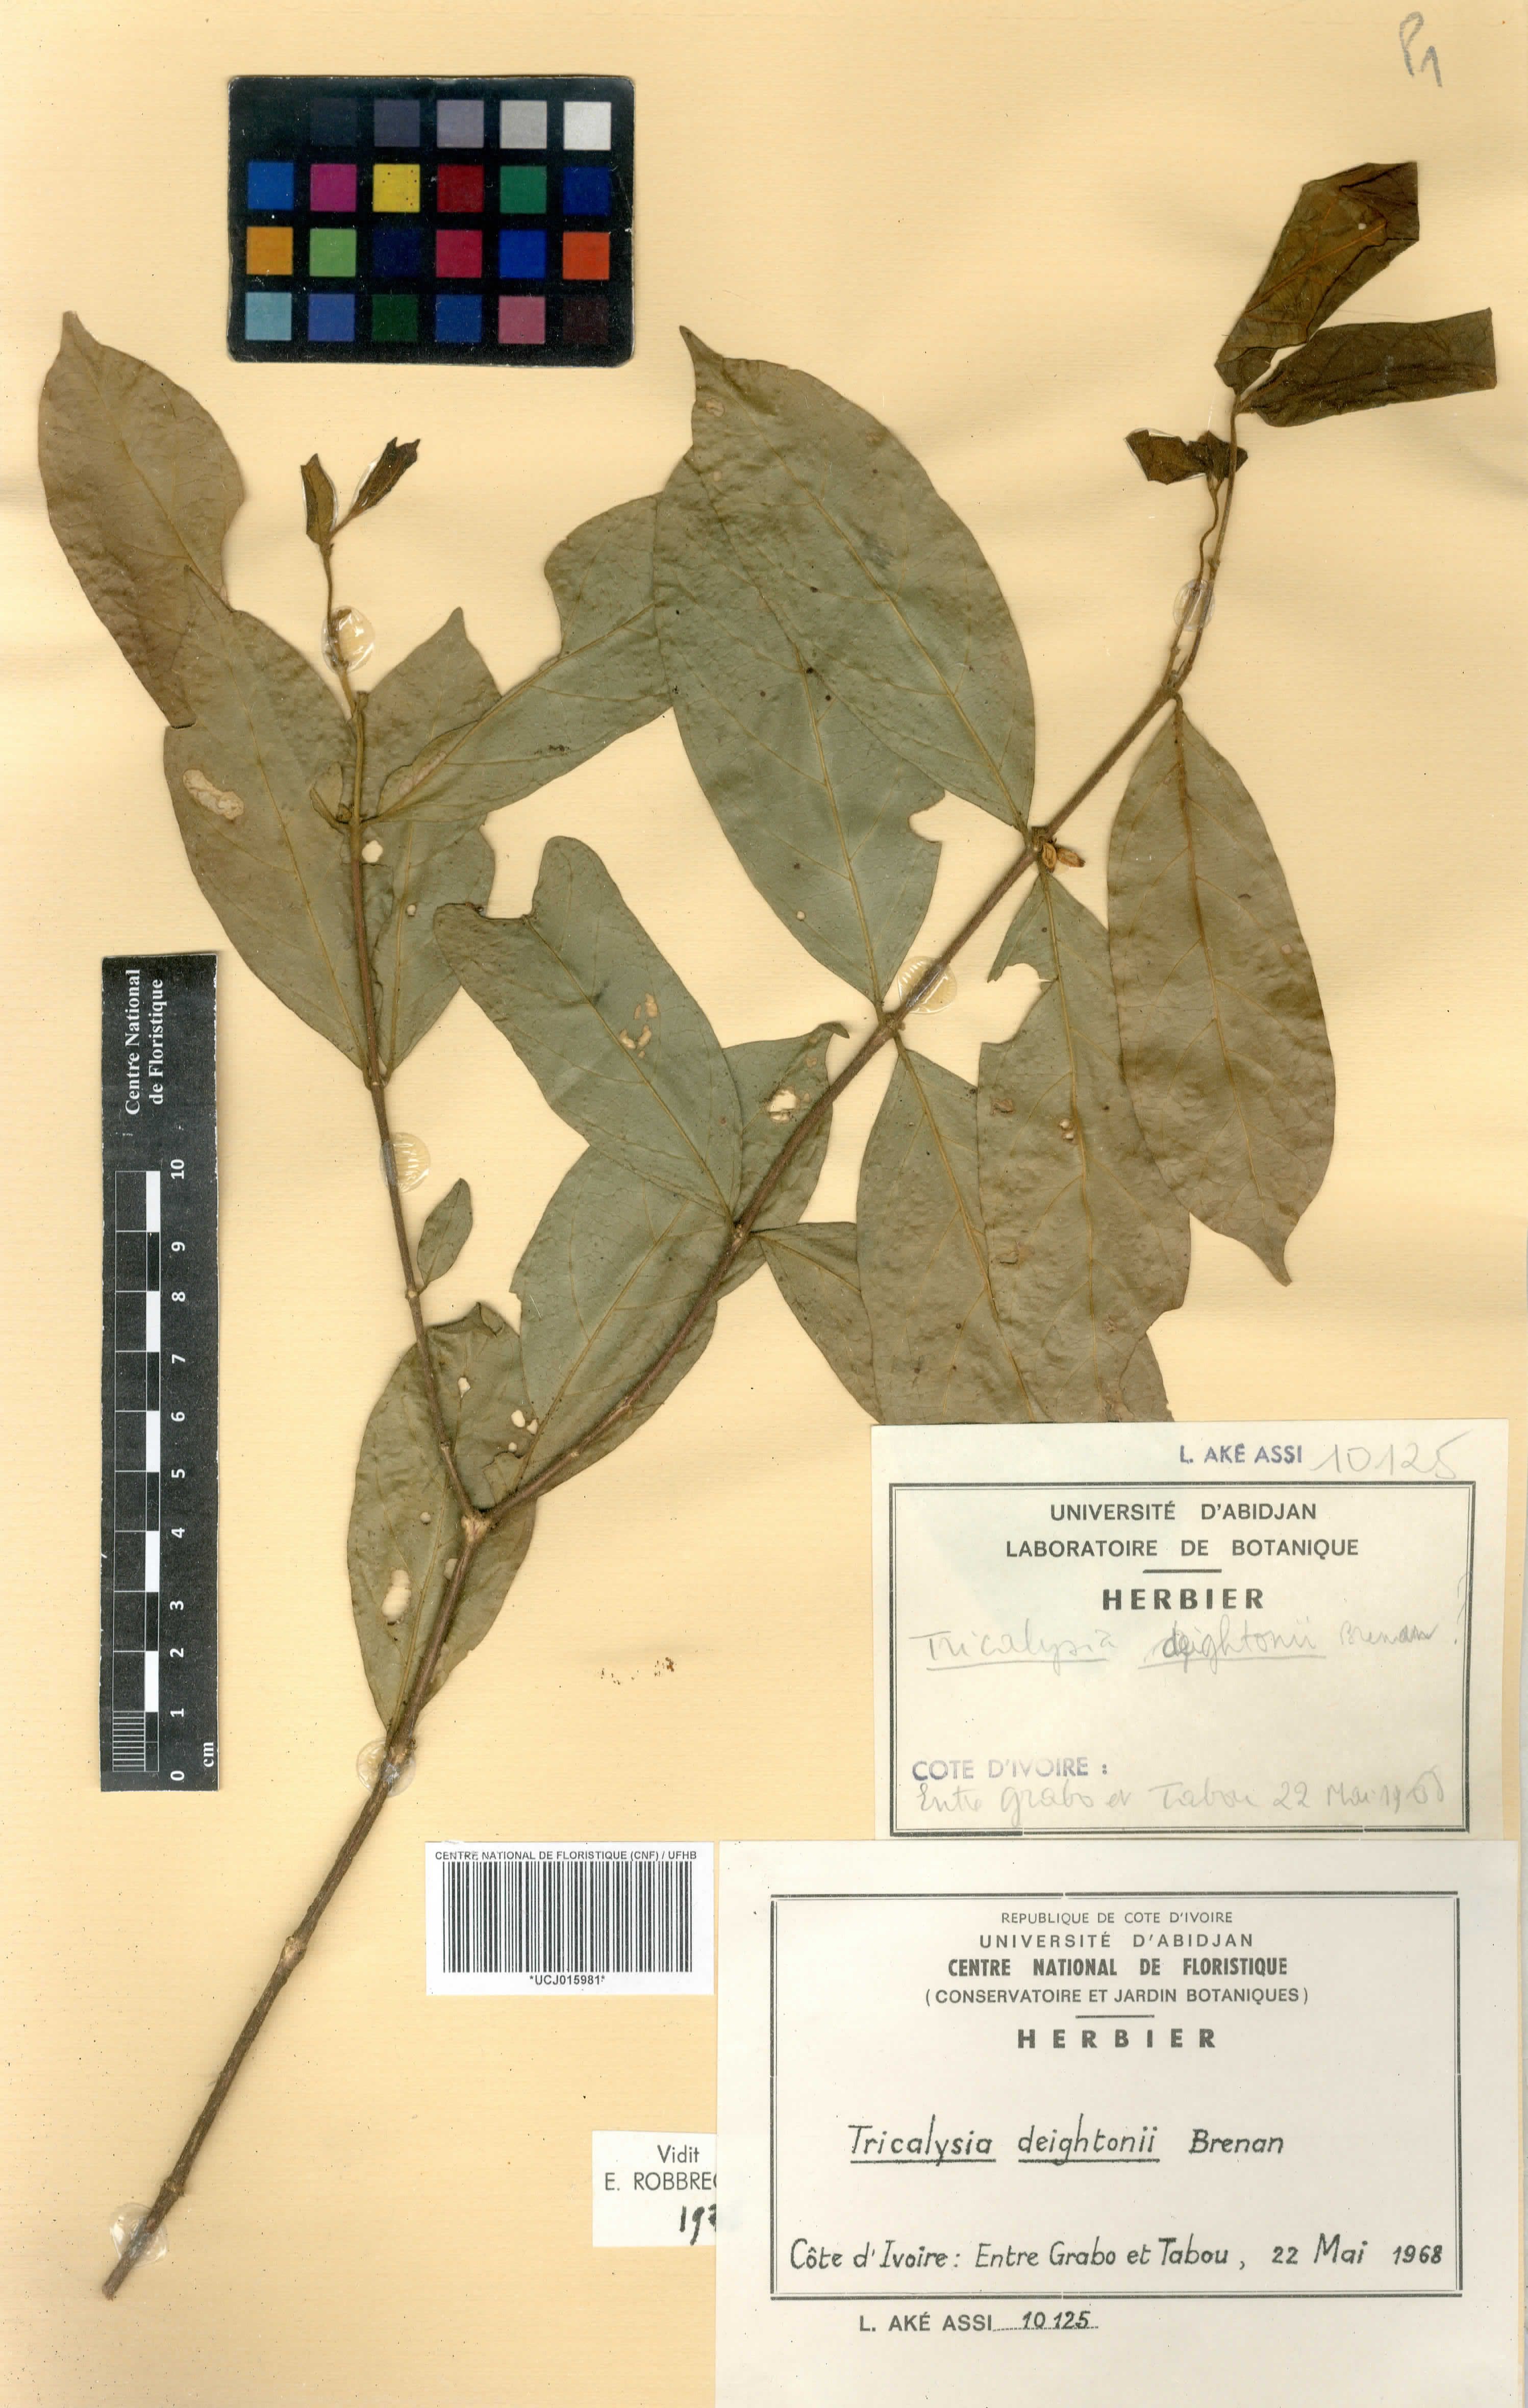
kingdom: Plantae
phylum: Tracheophyta
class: Magnoliopsida
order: Gentianales
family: Rubiaceae
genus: Tricalysia
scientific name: Tricalysia coriacea
